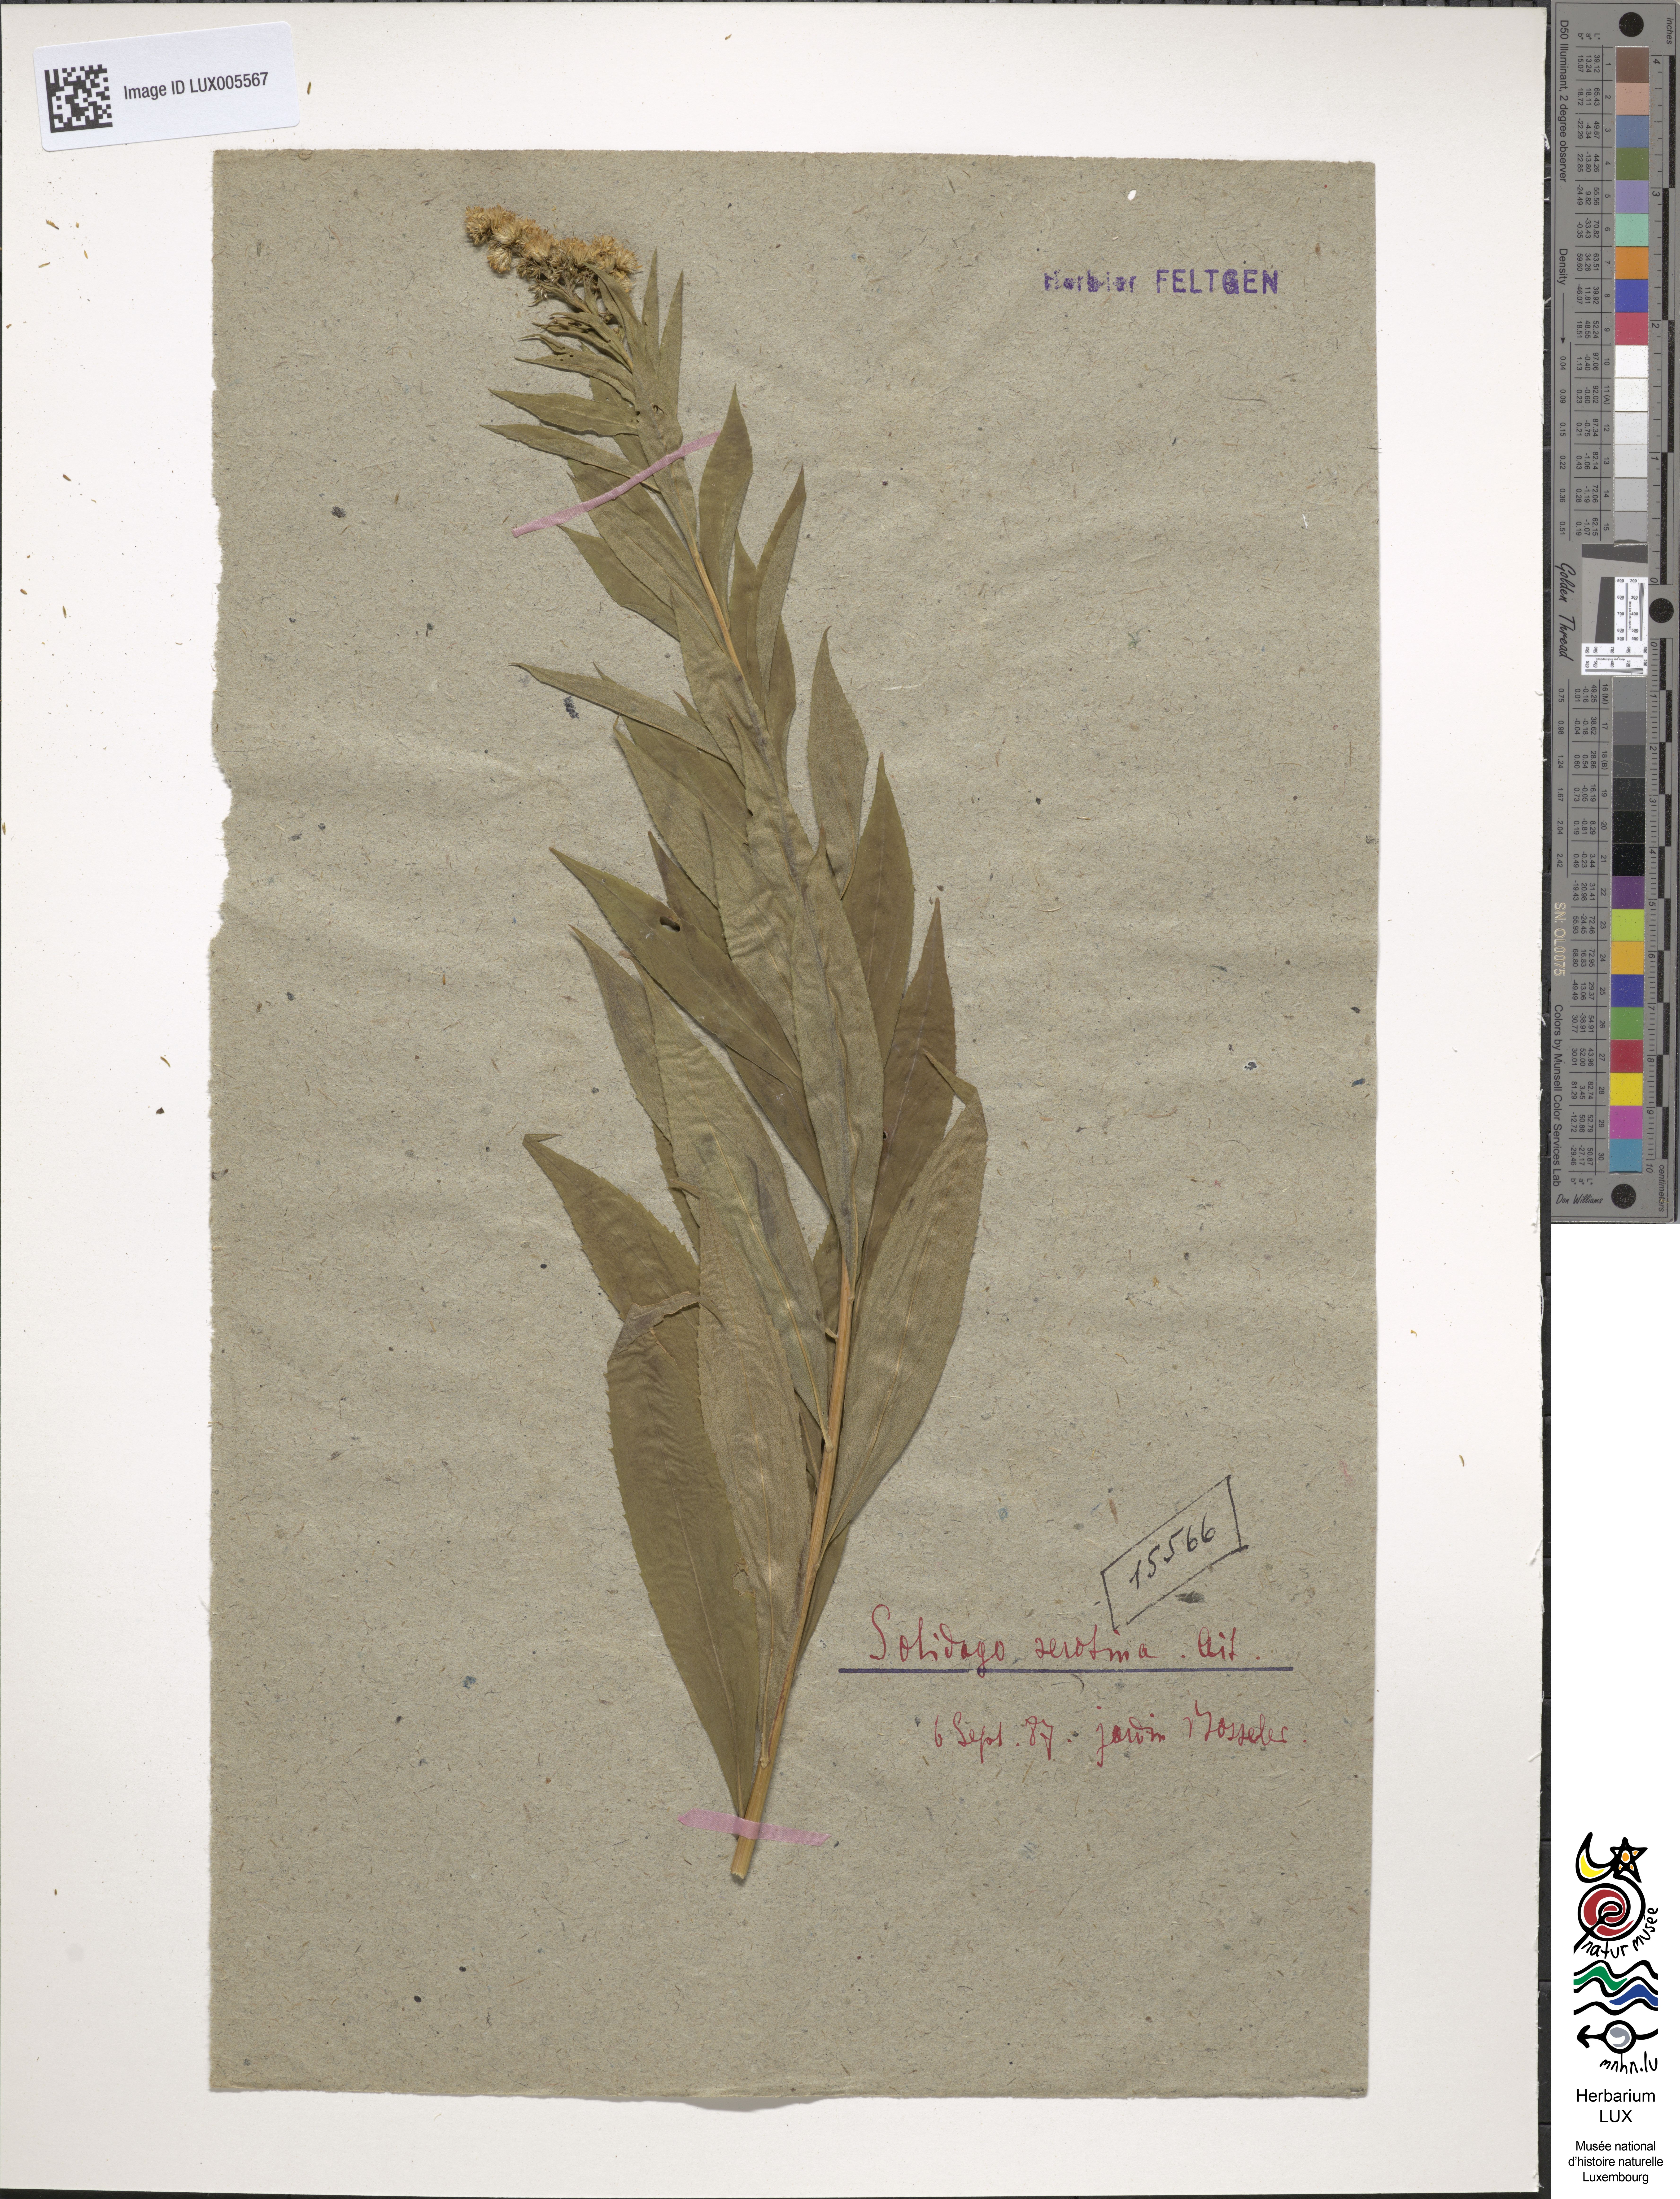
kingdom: Plantae
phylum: Tracheophyta
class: Magnoliopsida
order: Asterales
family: Asteraceae
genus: Solidago
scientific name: Solidago gigantea
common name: Giant goldenrod
